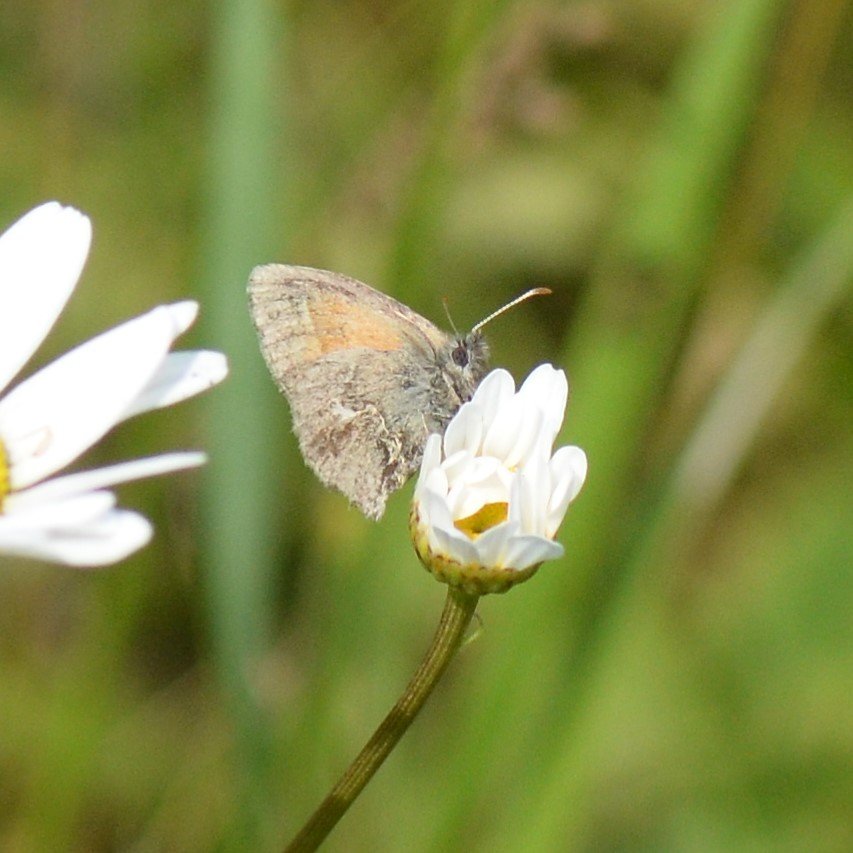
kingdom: Animalia
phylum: Arthropoda
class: Insecta
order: Lepidoptera
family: Nymphalidae
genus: Coenonympha
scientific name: Coenonympha tullia
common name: Large Heath
